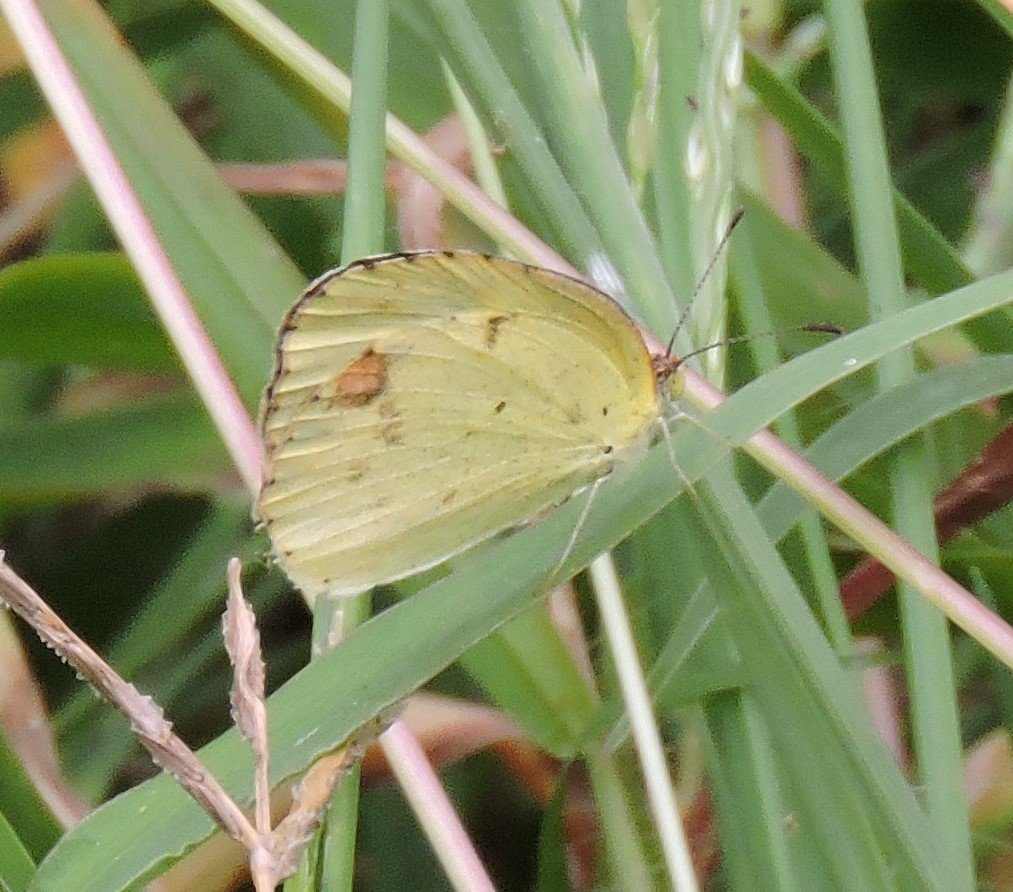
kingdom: Animalia
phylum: Arthropoda
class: Insecta
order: Lepidoptera
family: Pieridae
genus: Pyrisitia
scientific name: Pyrisitia lisa
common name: Little Yellow
